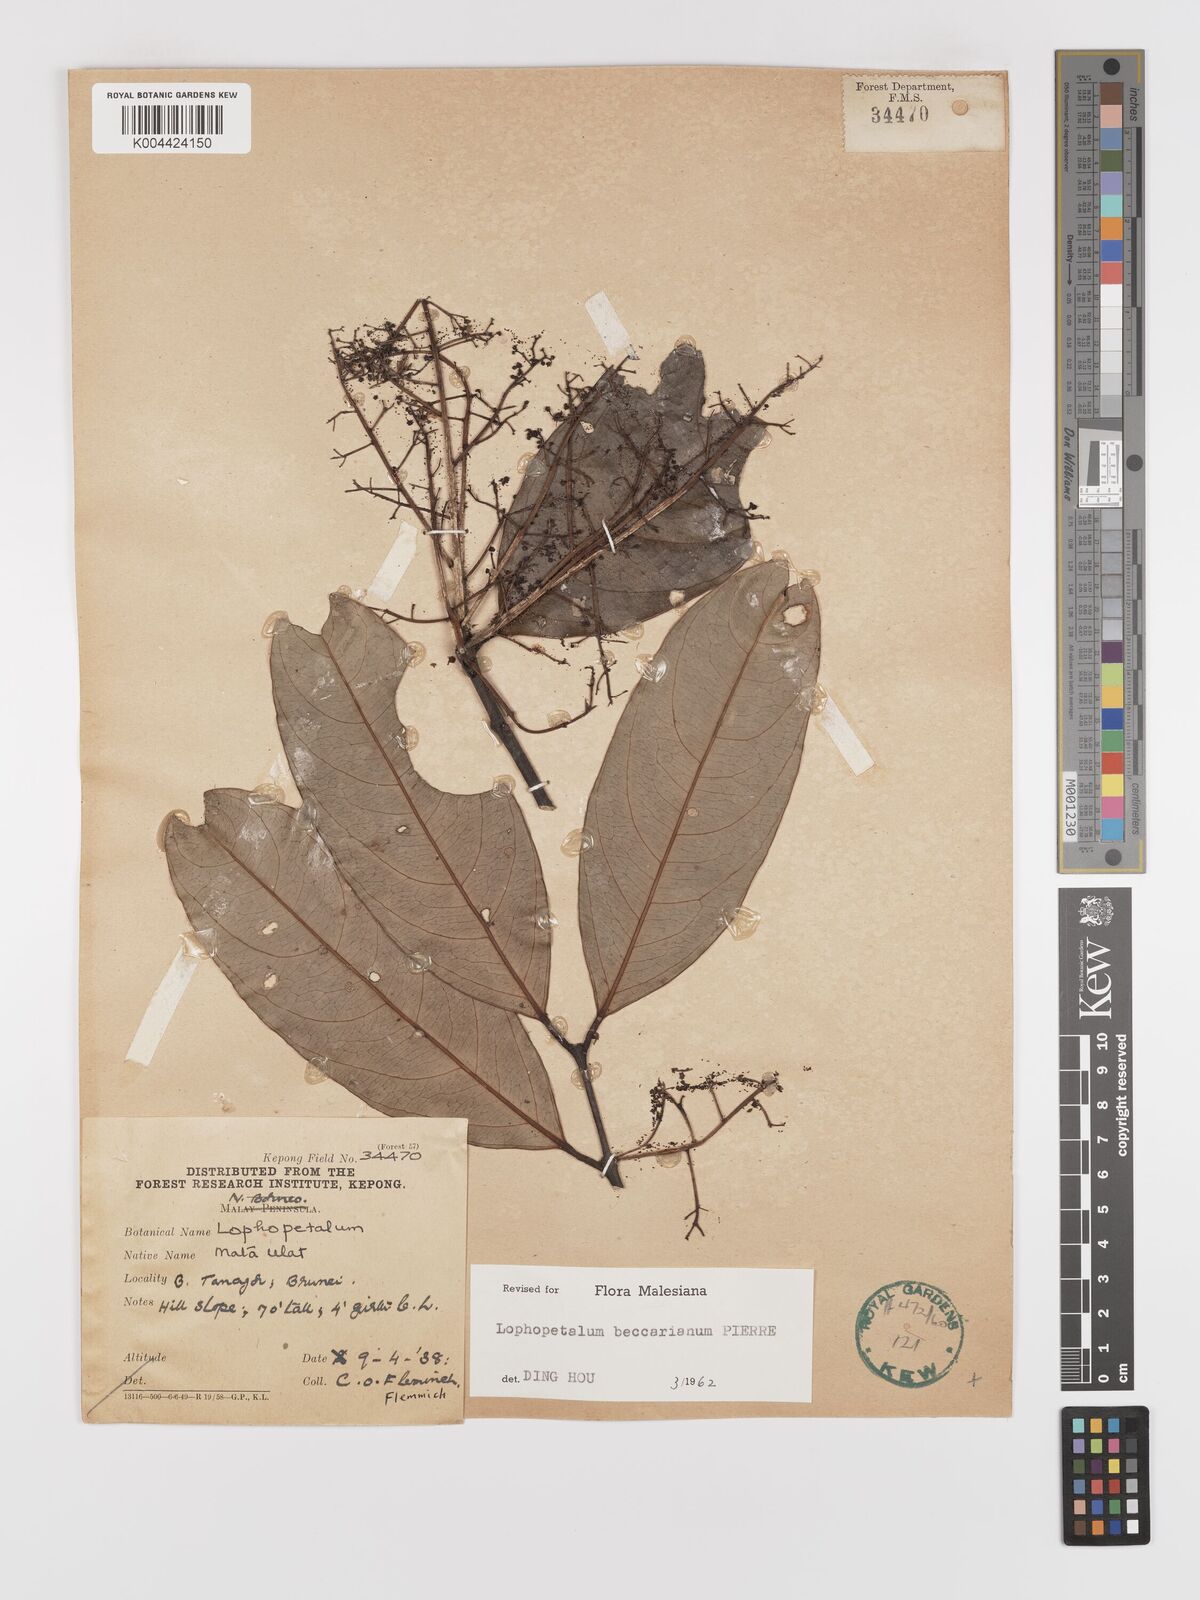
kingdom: Plantae
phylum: Tracheophyta
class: Magnoliopsida
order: Celastrales
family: Celastraceae
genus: Lophopetalum
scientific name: Lophopetalum beccarianum
